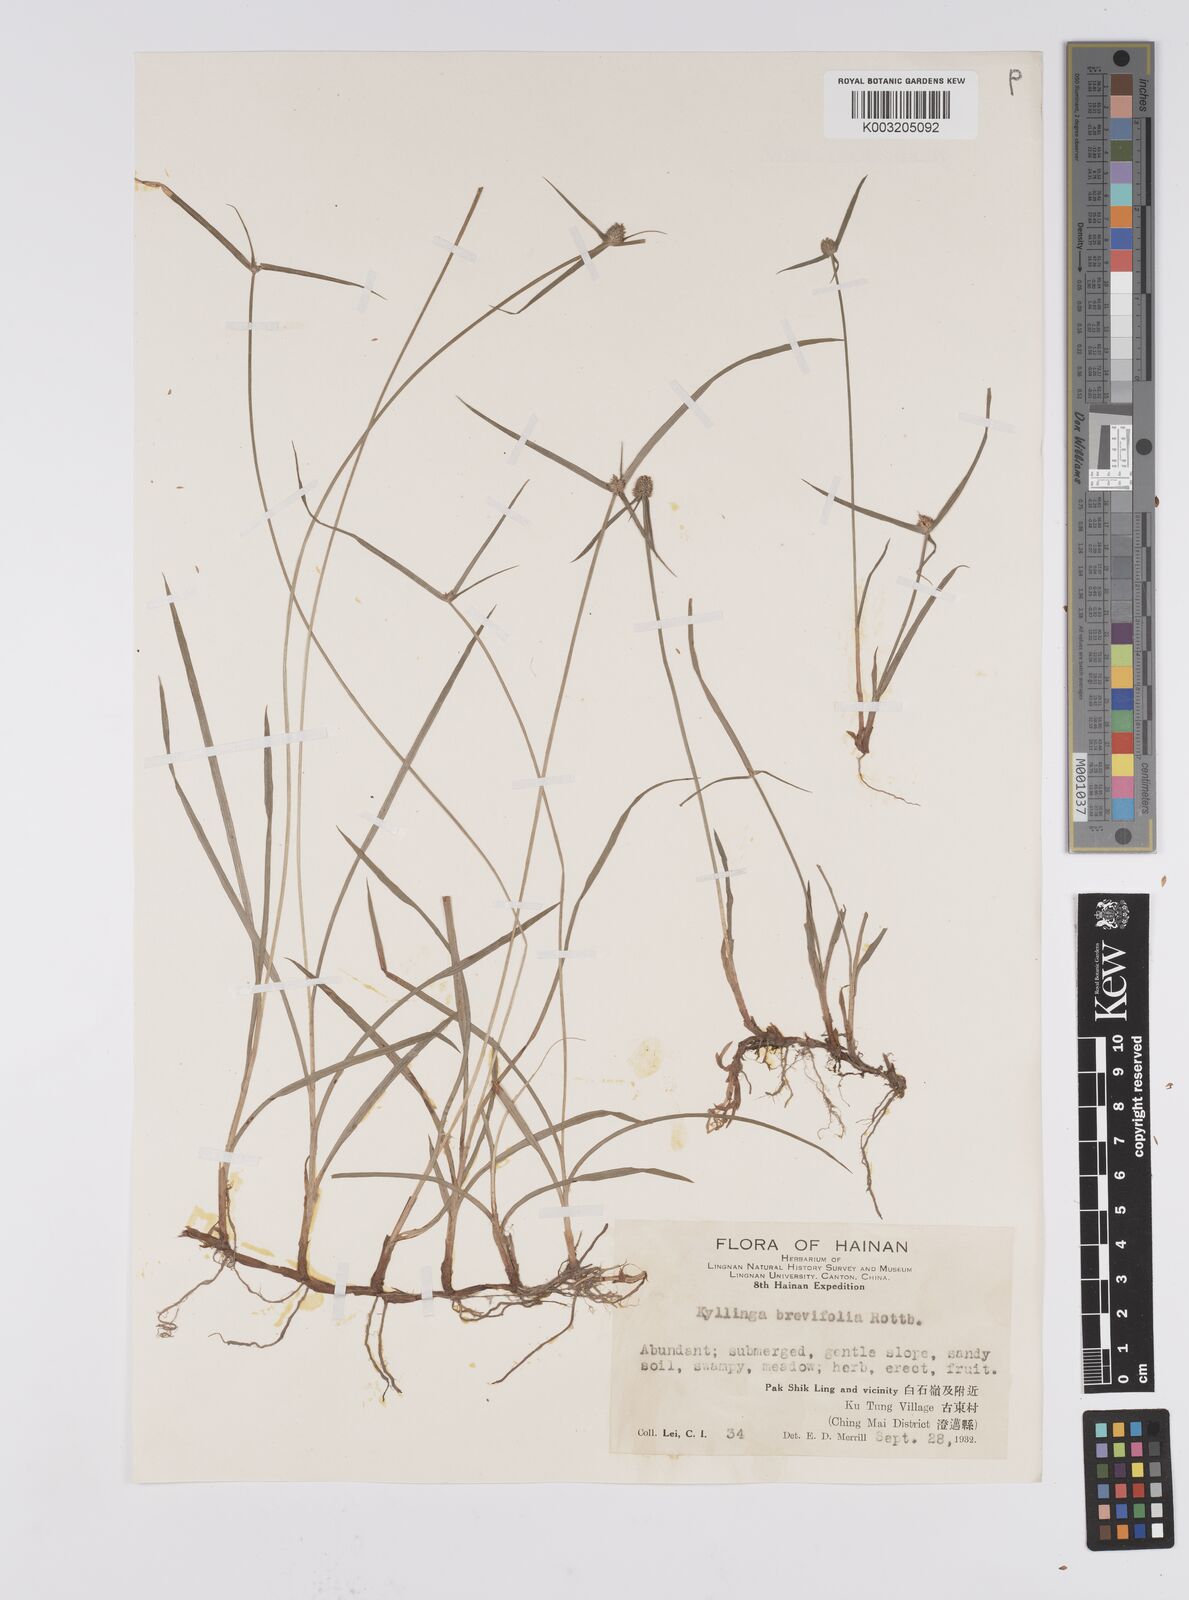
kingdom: Plantae
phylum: Tracheophyta
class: Liliopsida
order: Poales
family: Cyperaceae
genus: Cyperus
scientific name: Cyperus brevifolius
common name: Globe kyllinga
